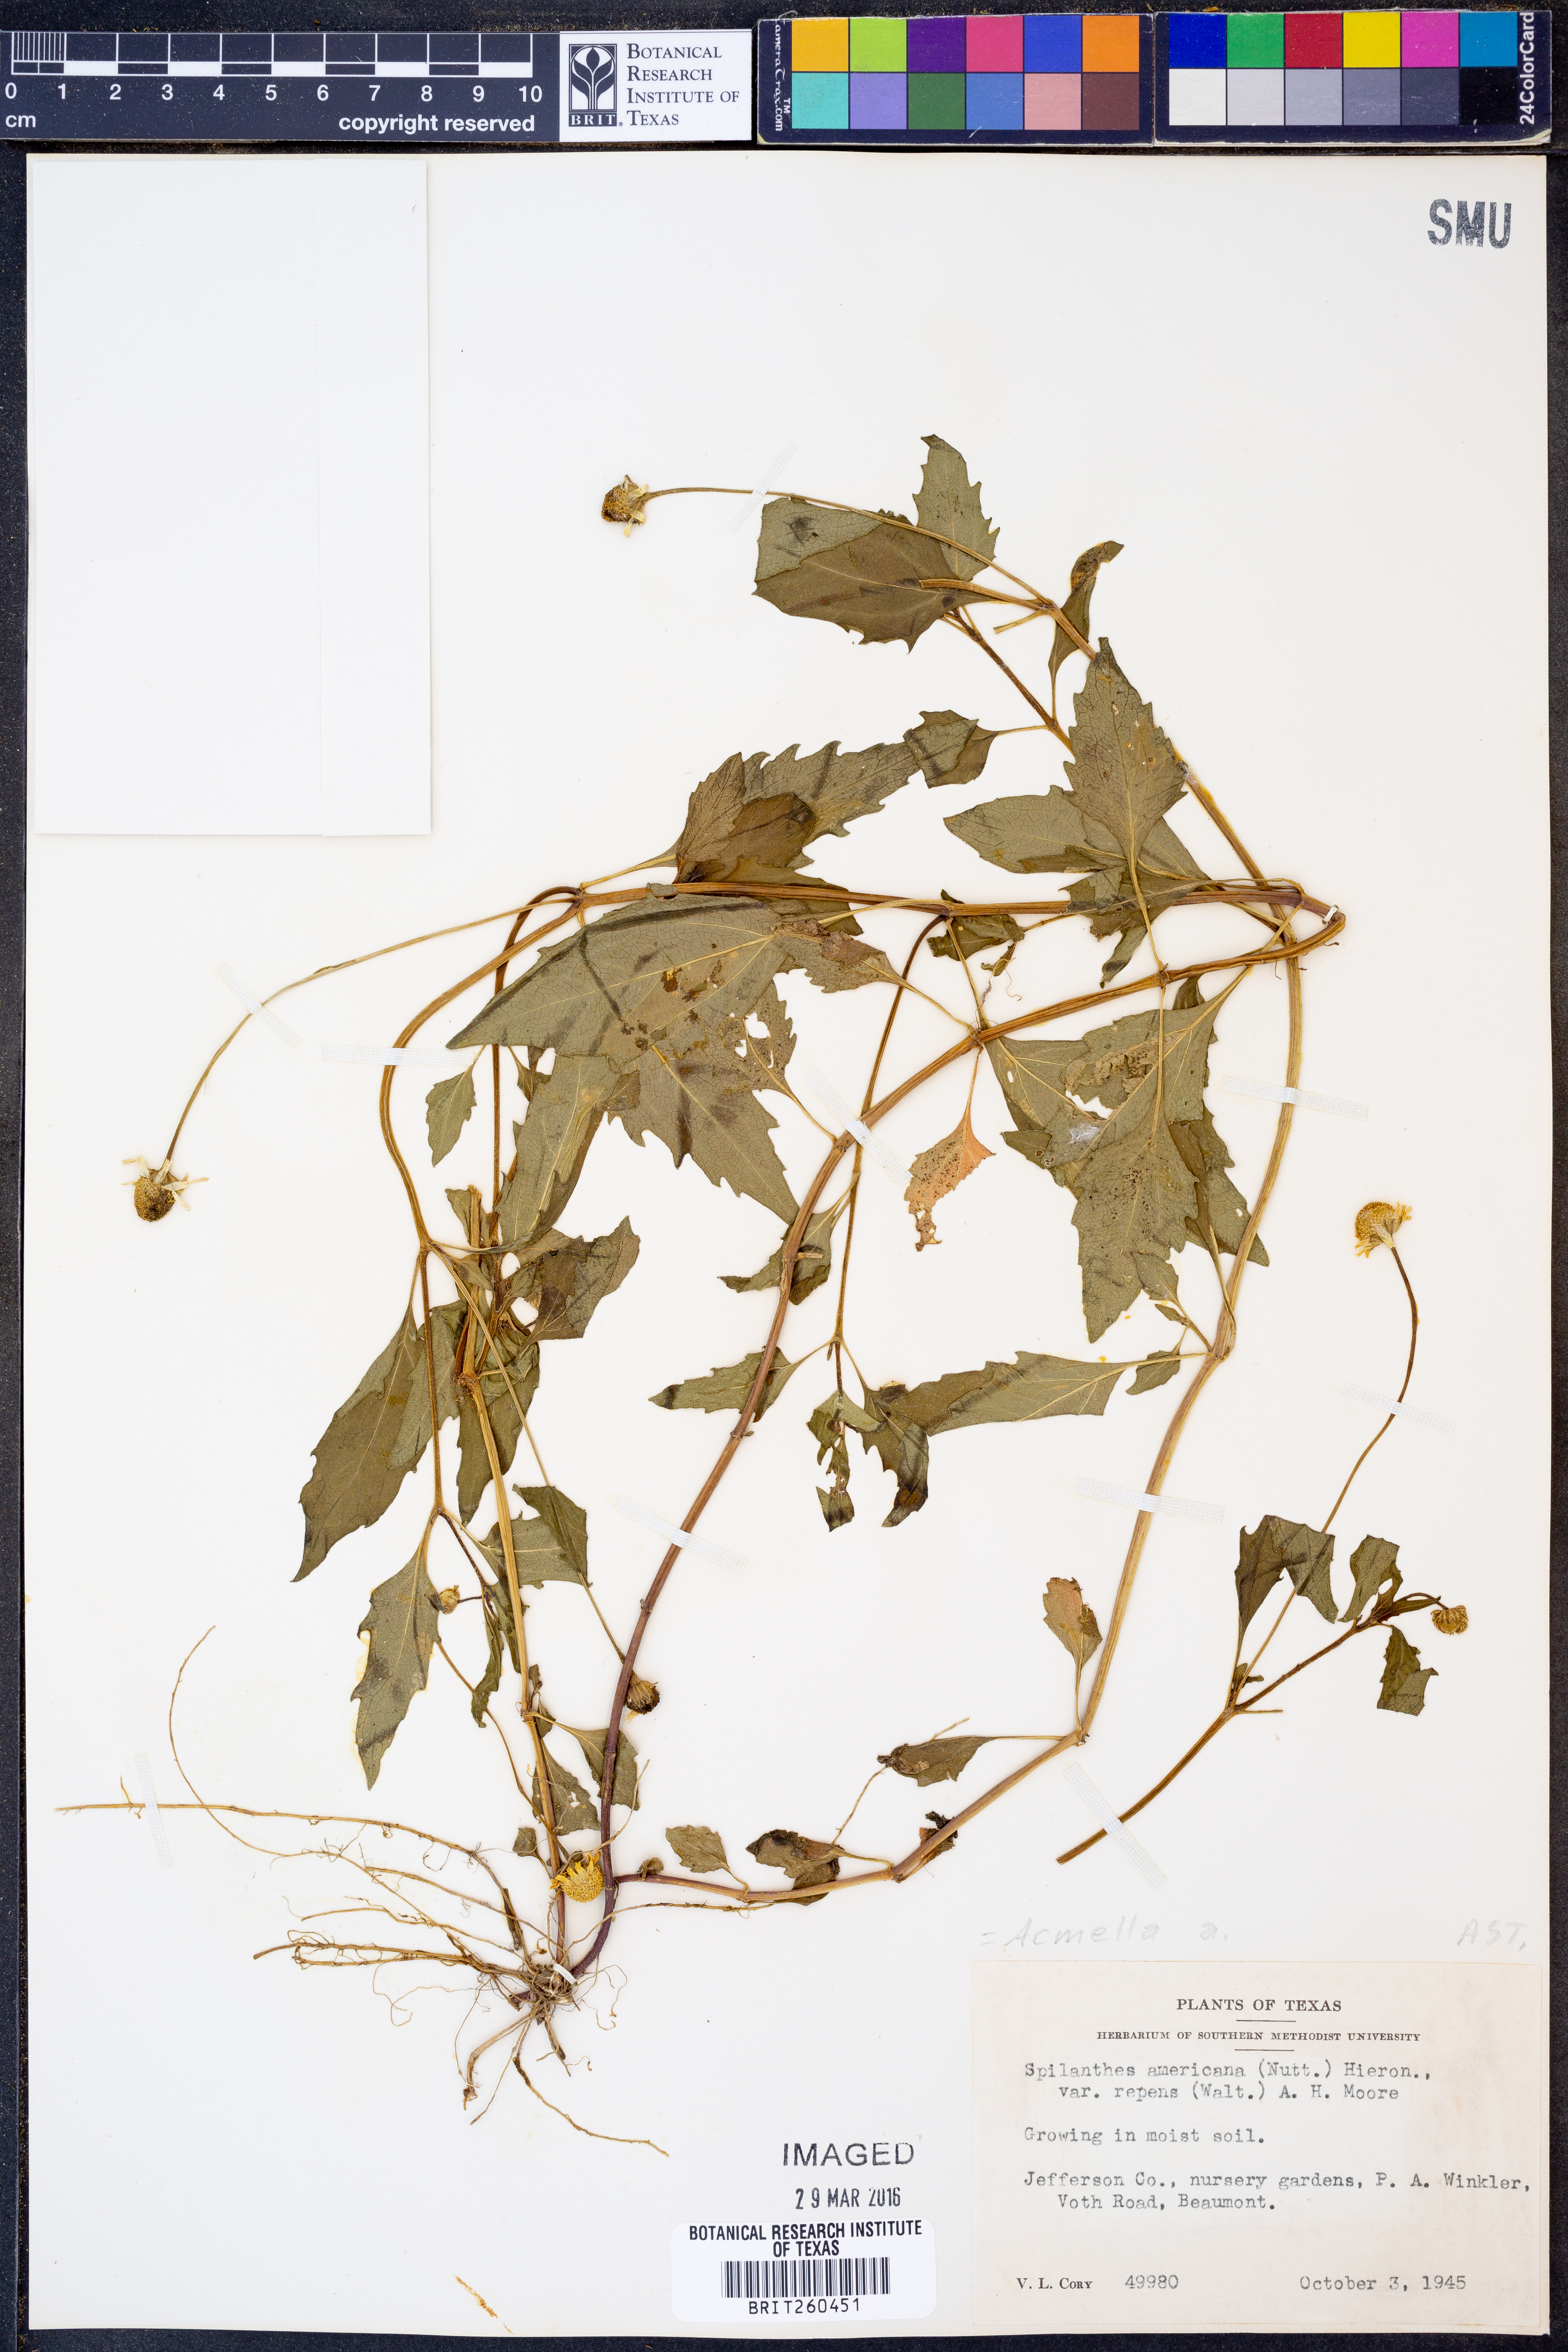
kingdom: Plantae
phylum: Tracheophyta
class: Magnoliopsida
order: Asterales
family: Asteraceae
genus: Acmella
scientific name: Acmella
